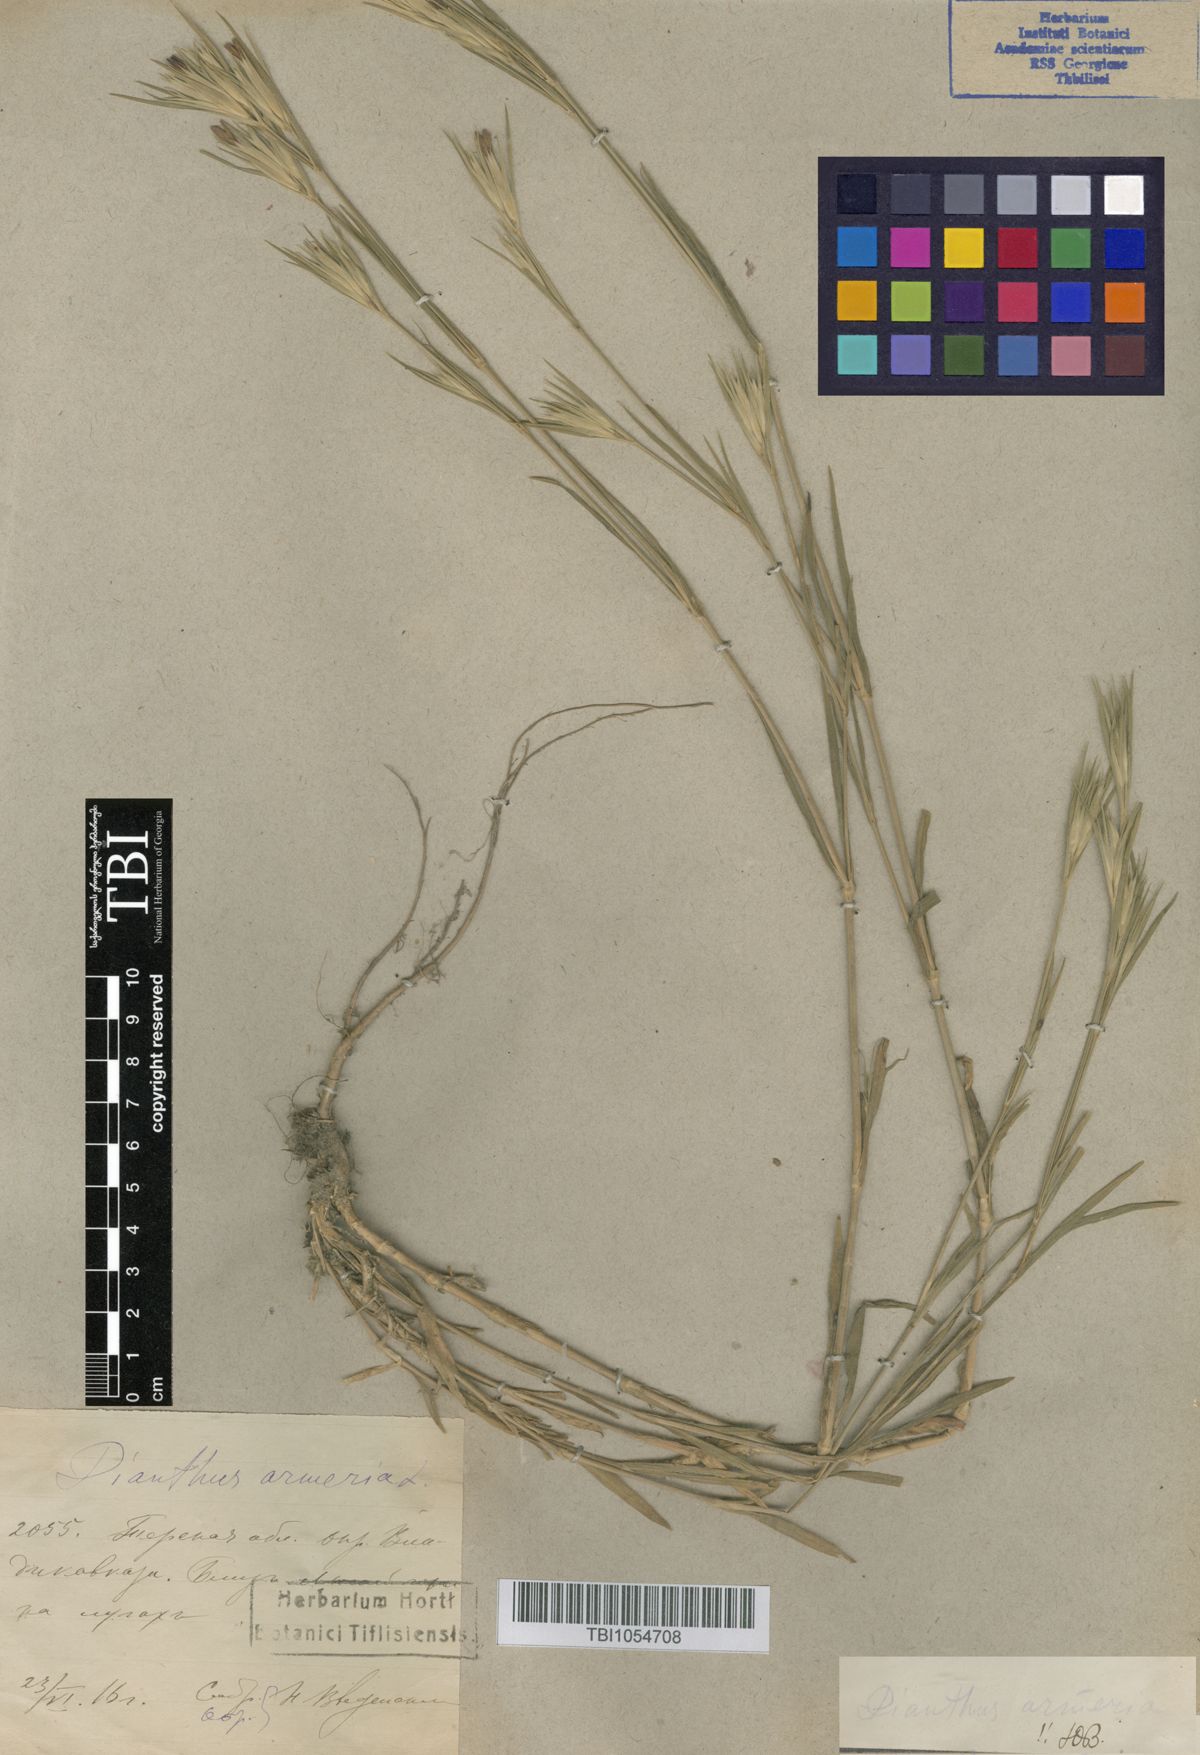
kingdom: Plantae
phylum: Tracheophyta
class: Magnoliopsida
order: Caryophyllales
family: Caryophyllaceae
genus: Dianthus
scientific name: Dianthus armeria
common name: Deptford pink
